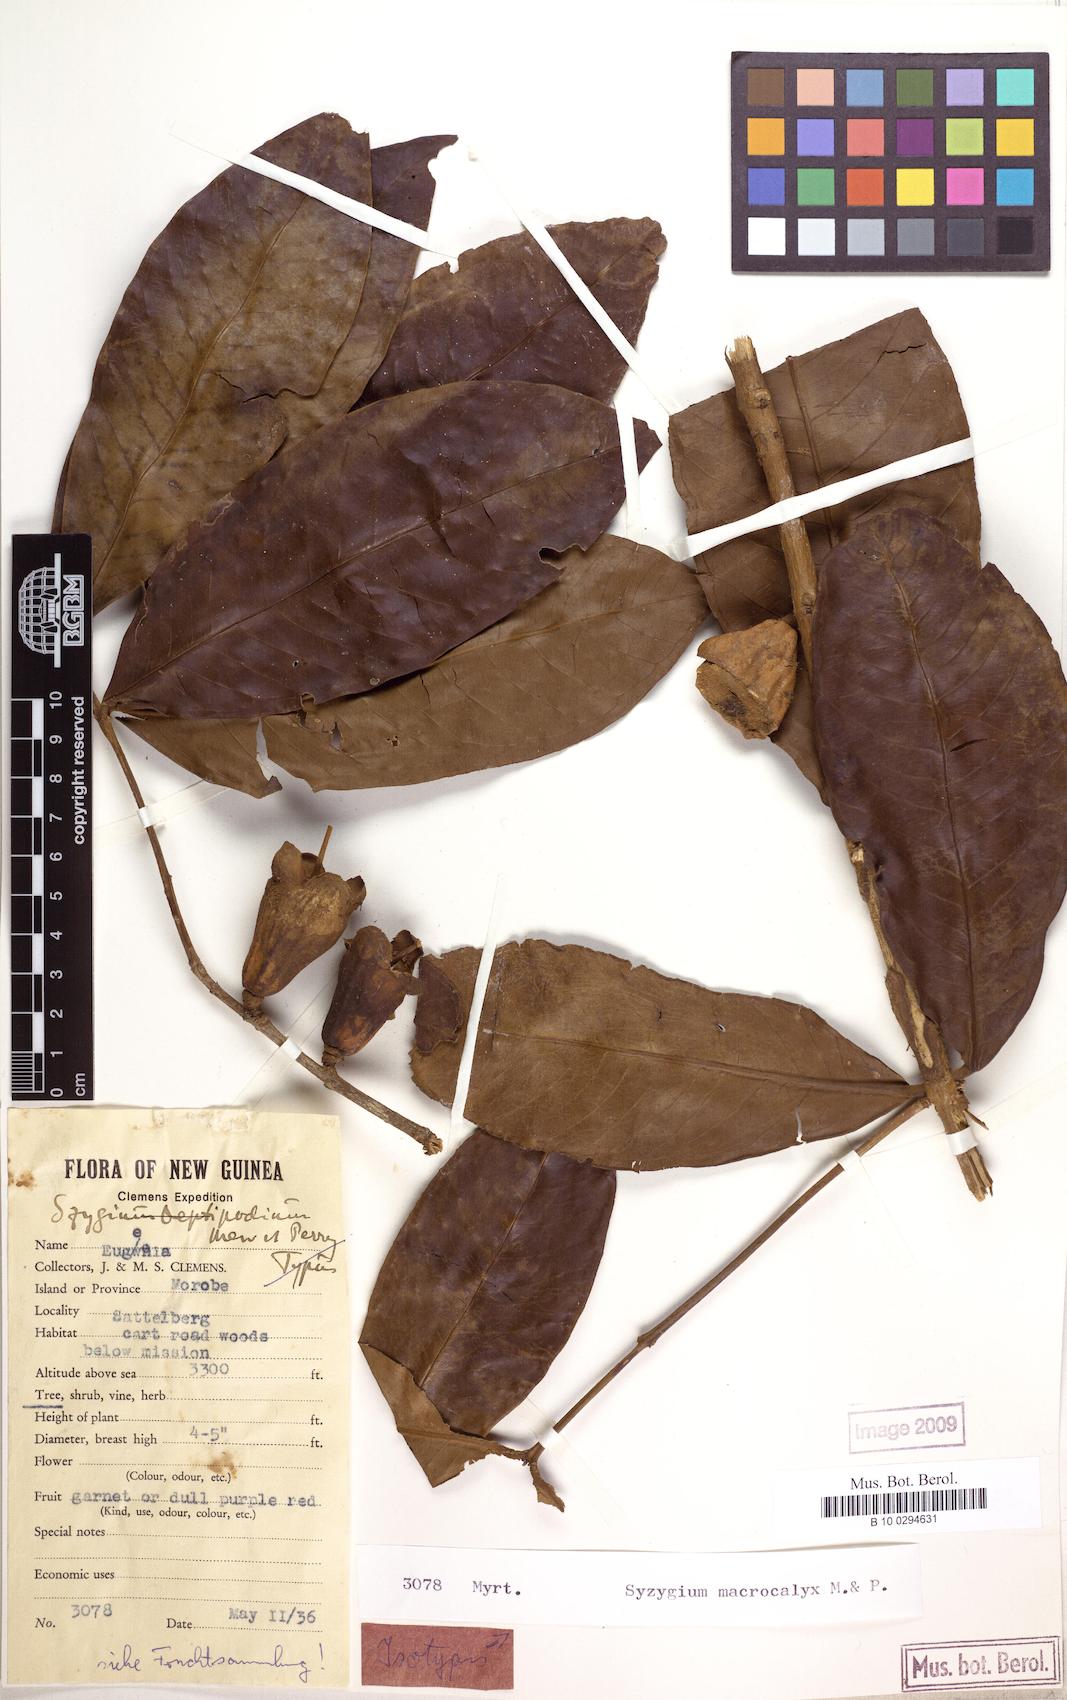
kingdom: Plantae
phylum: Tracheophyta
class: Magnoliopsida
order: Myrtales
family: Myrtaceae
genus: Syzygium
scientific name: Syzygium macrocalyx
